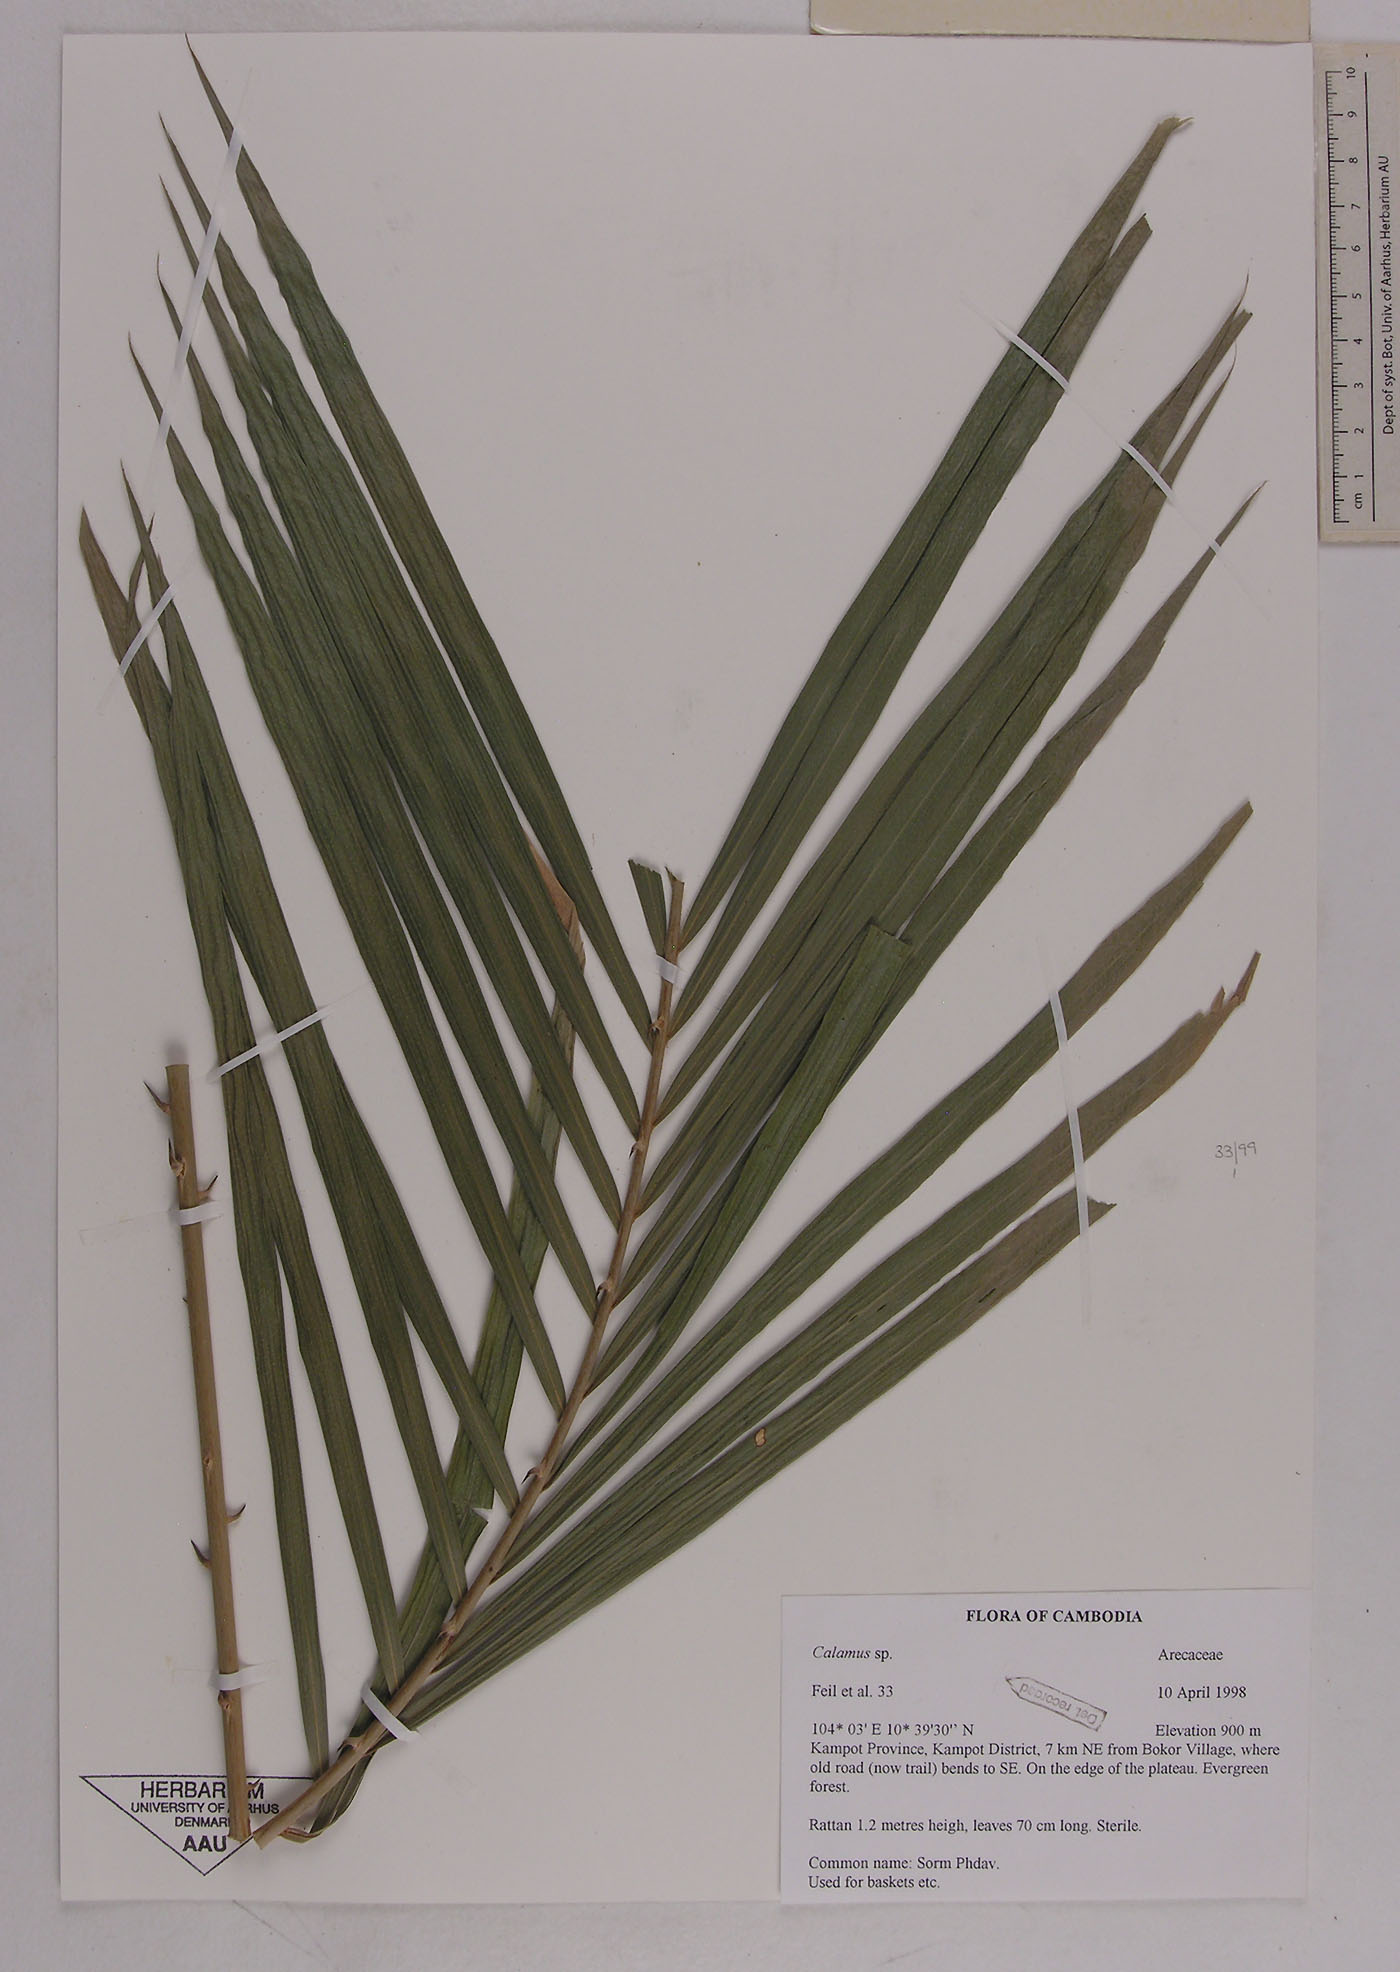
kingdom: Plantae
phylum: Tracheophyta
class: Liliopsida
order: Arecales
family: Arecaceae
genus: Calamus
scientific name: Calamus
